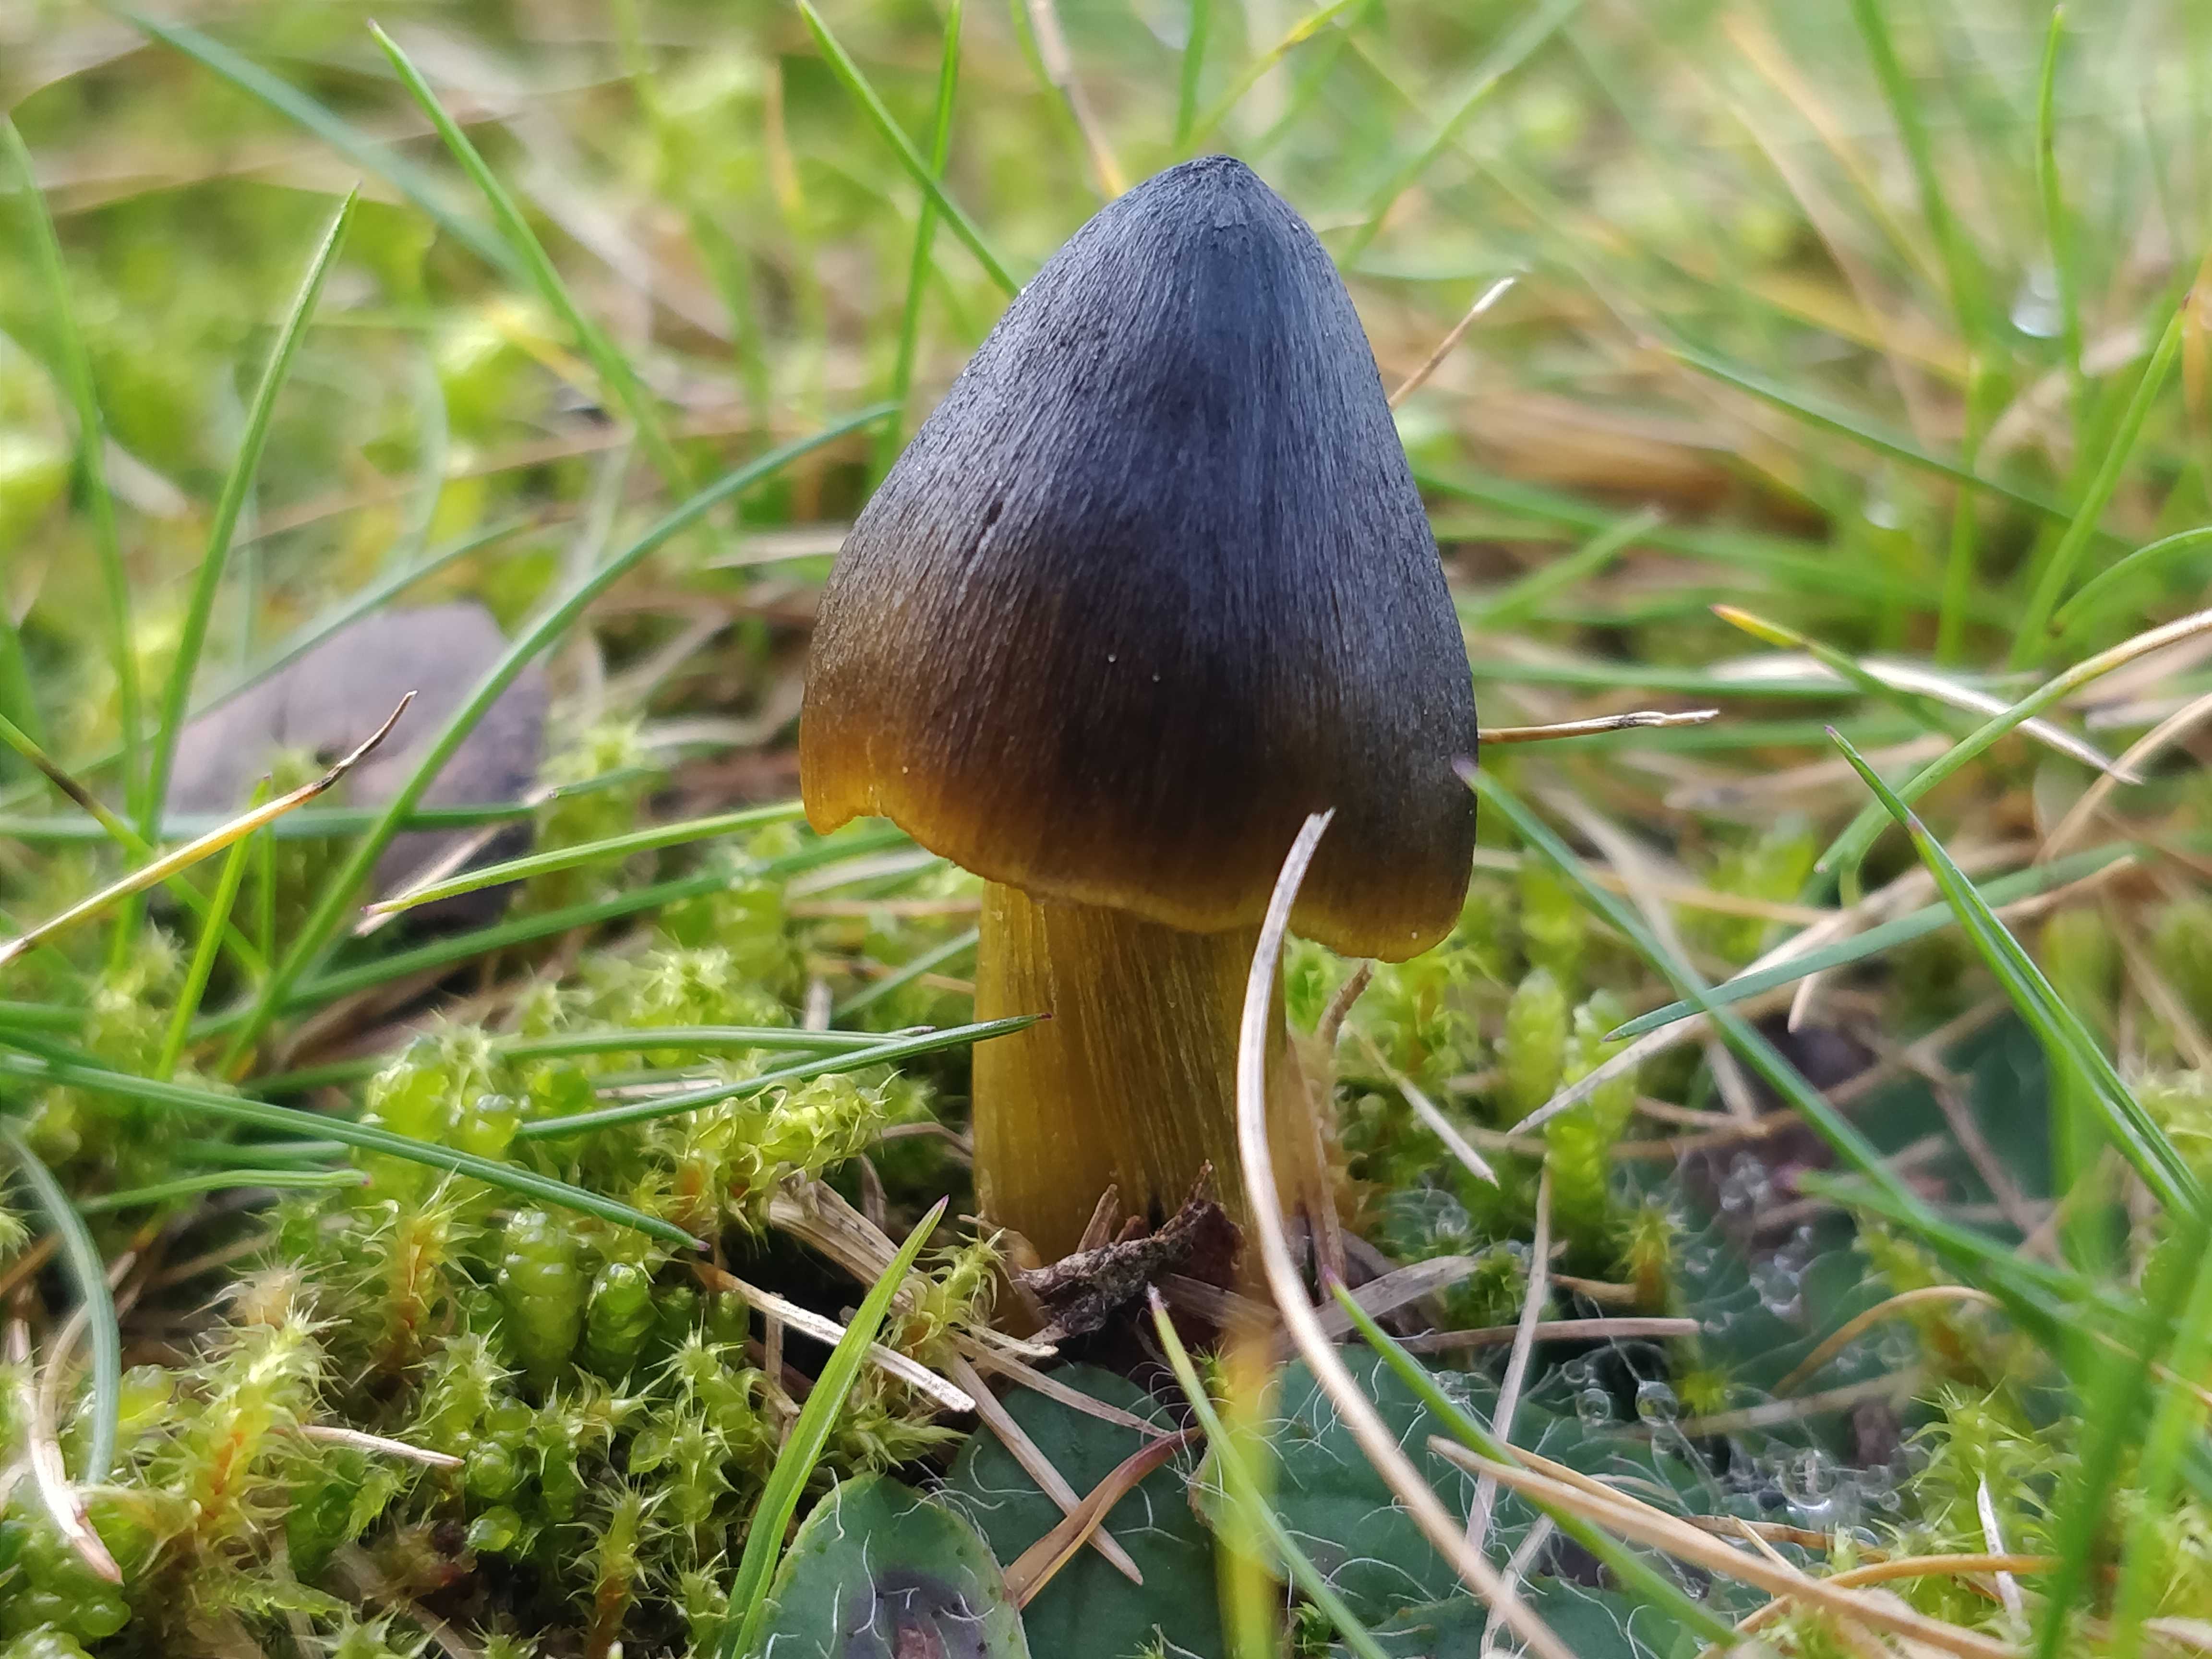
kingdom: Fungi
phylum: Basidiomycota
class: Agaricomycetes
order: Agaricales
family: Hygrophoraceae
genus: Hygrocybe
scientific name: Hygrocybe conica
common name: kegle-vokshat
